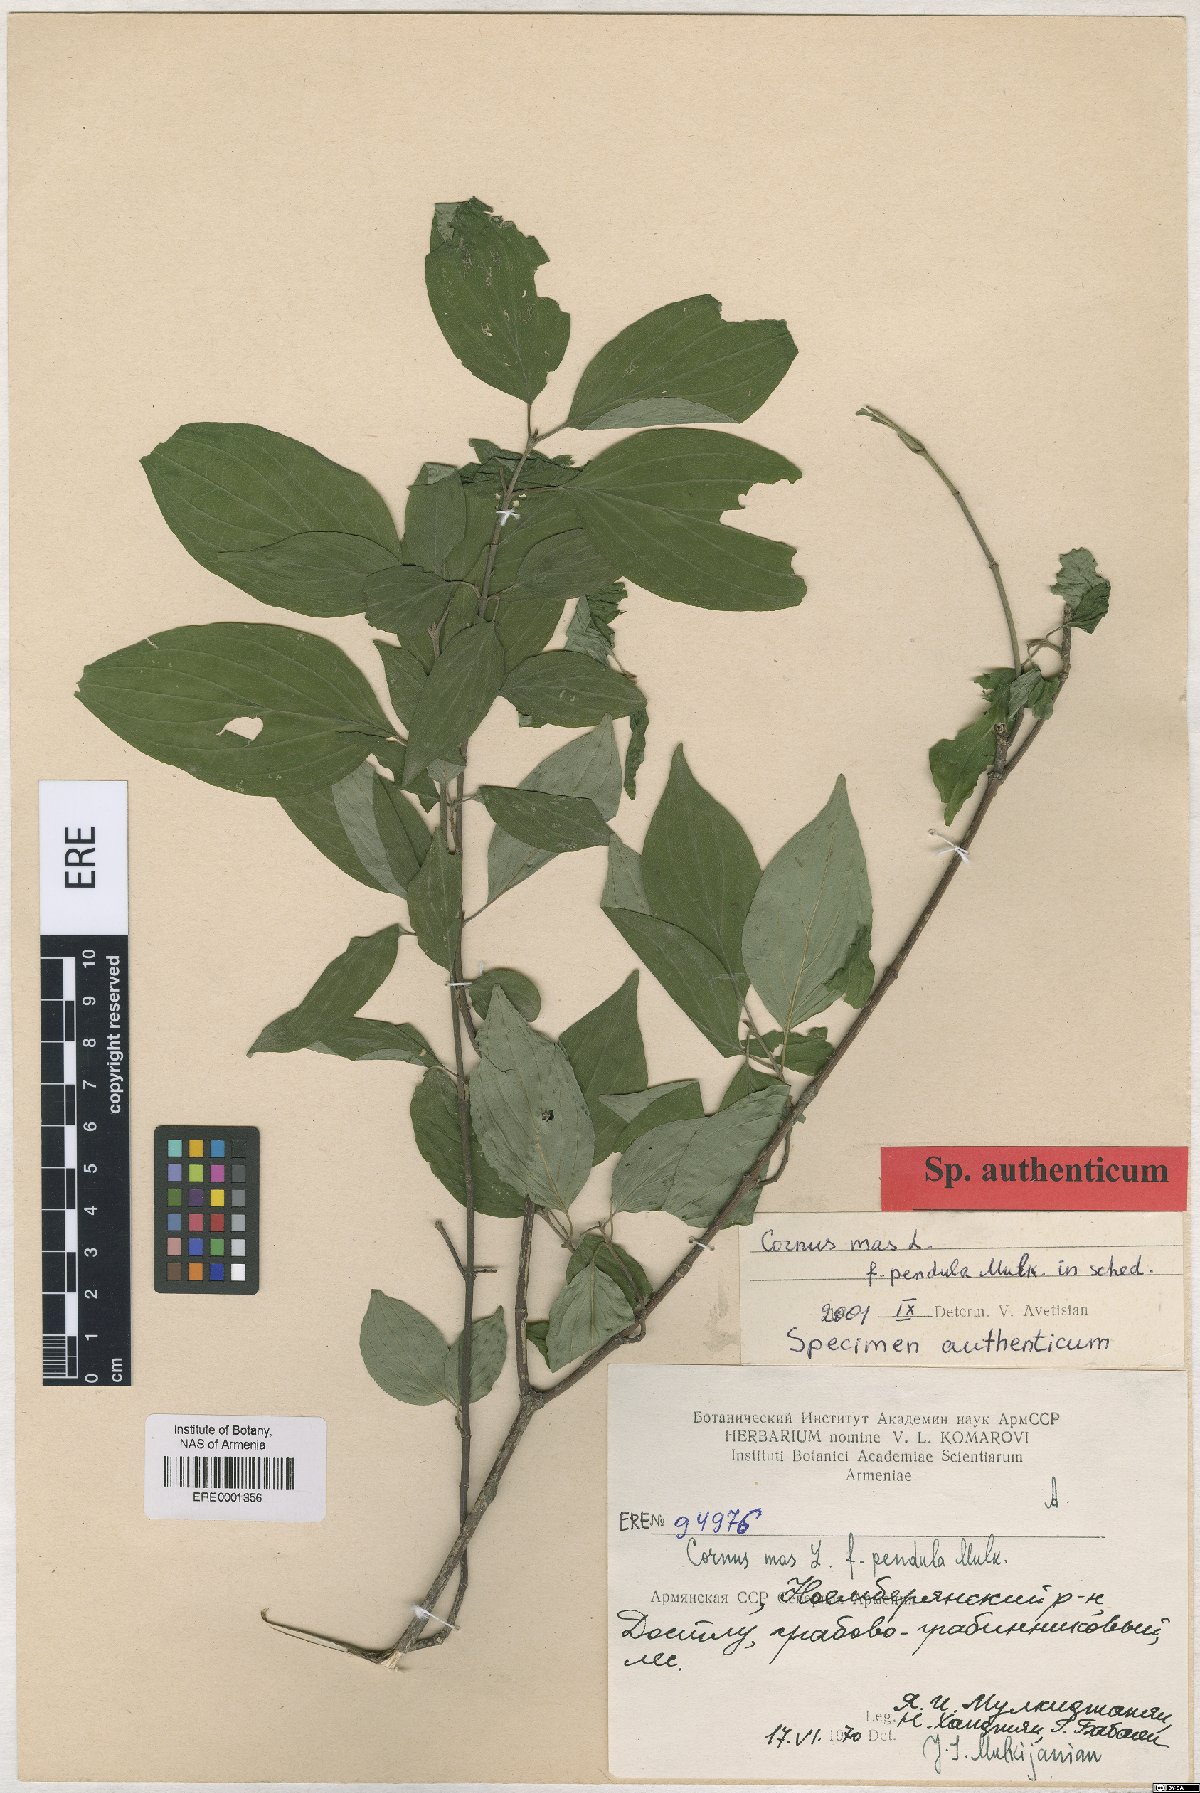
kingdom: Plantae
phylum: Tracheophyta
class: Magnoliopsida
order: Cornales
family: Cornaceae
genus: Cornus
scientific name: Cornus mas
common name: Cornelian-cherry
